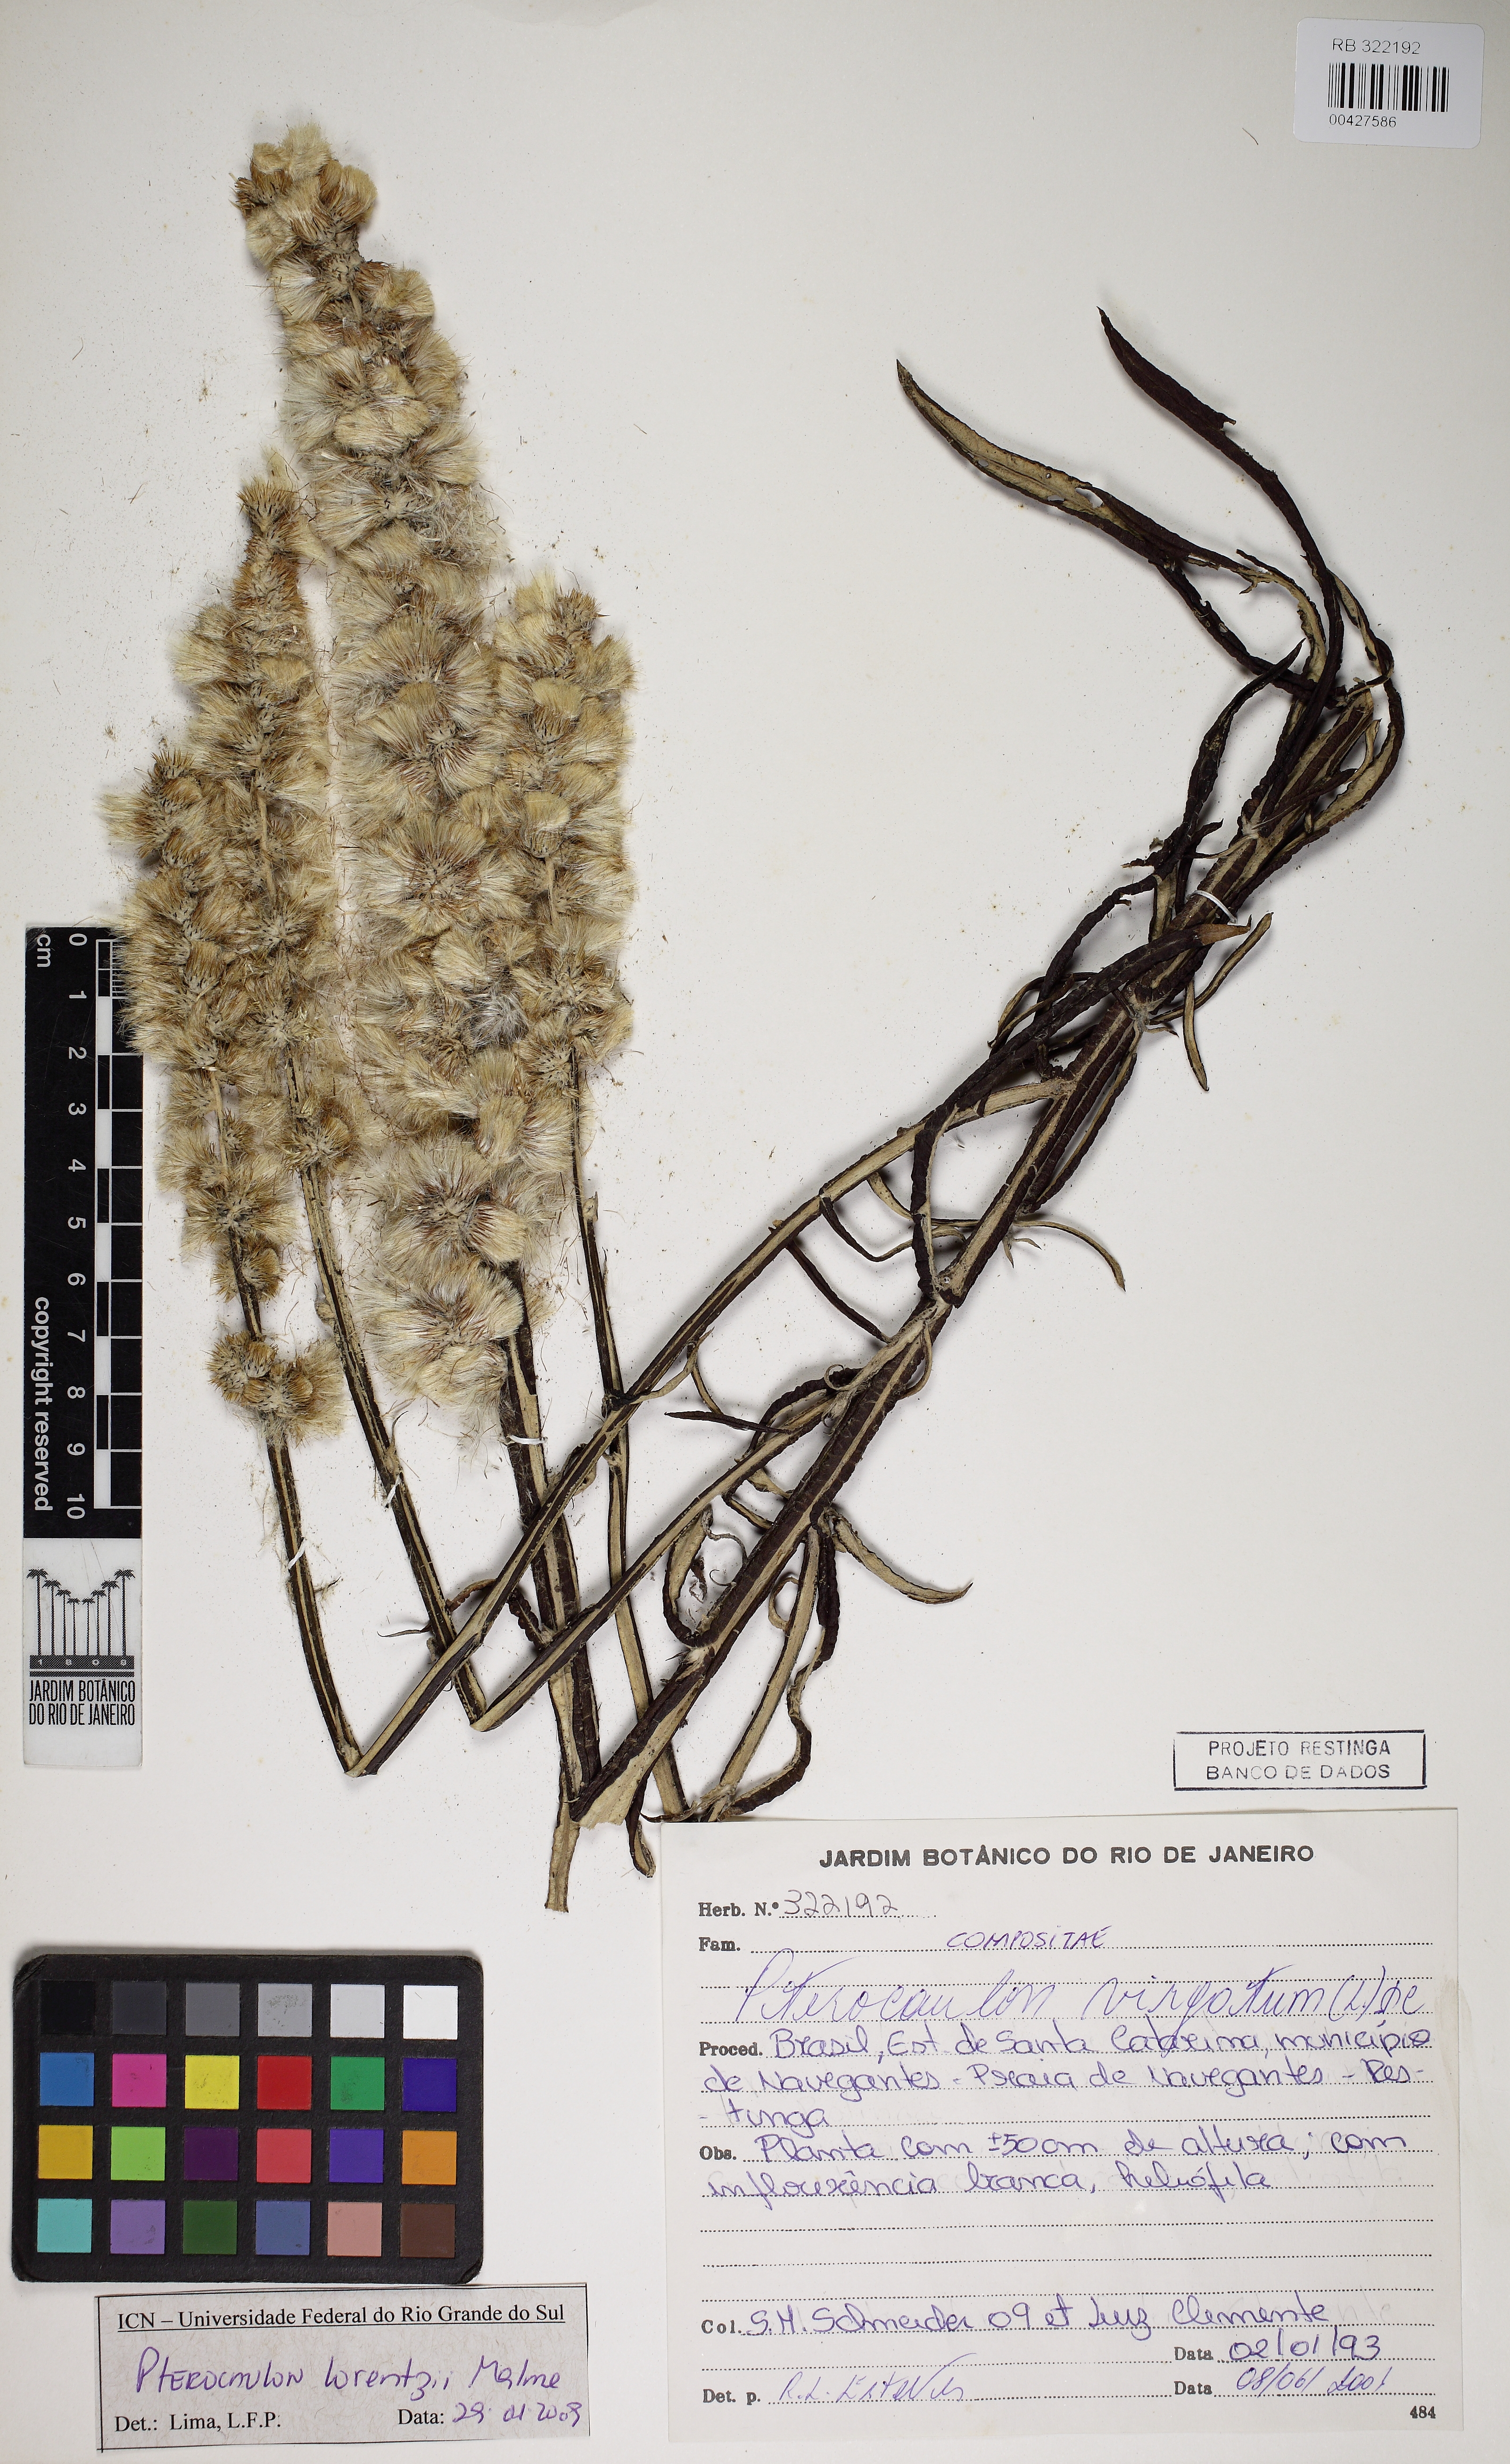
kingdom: Plantae
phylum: Tracheophyta
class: Magnoliopsida
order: Asterales
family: Asteraceae
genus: Pterocaulon
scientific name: Pterocaulon lorentzii
